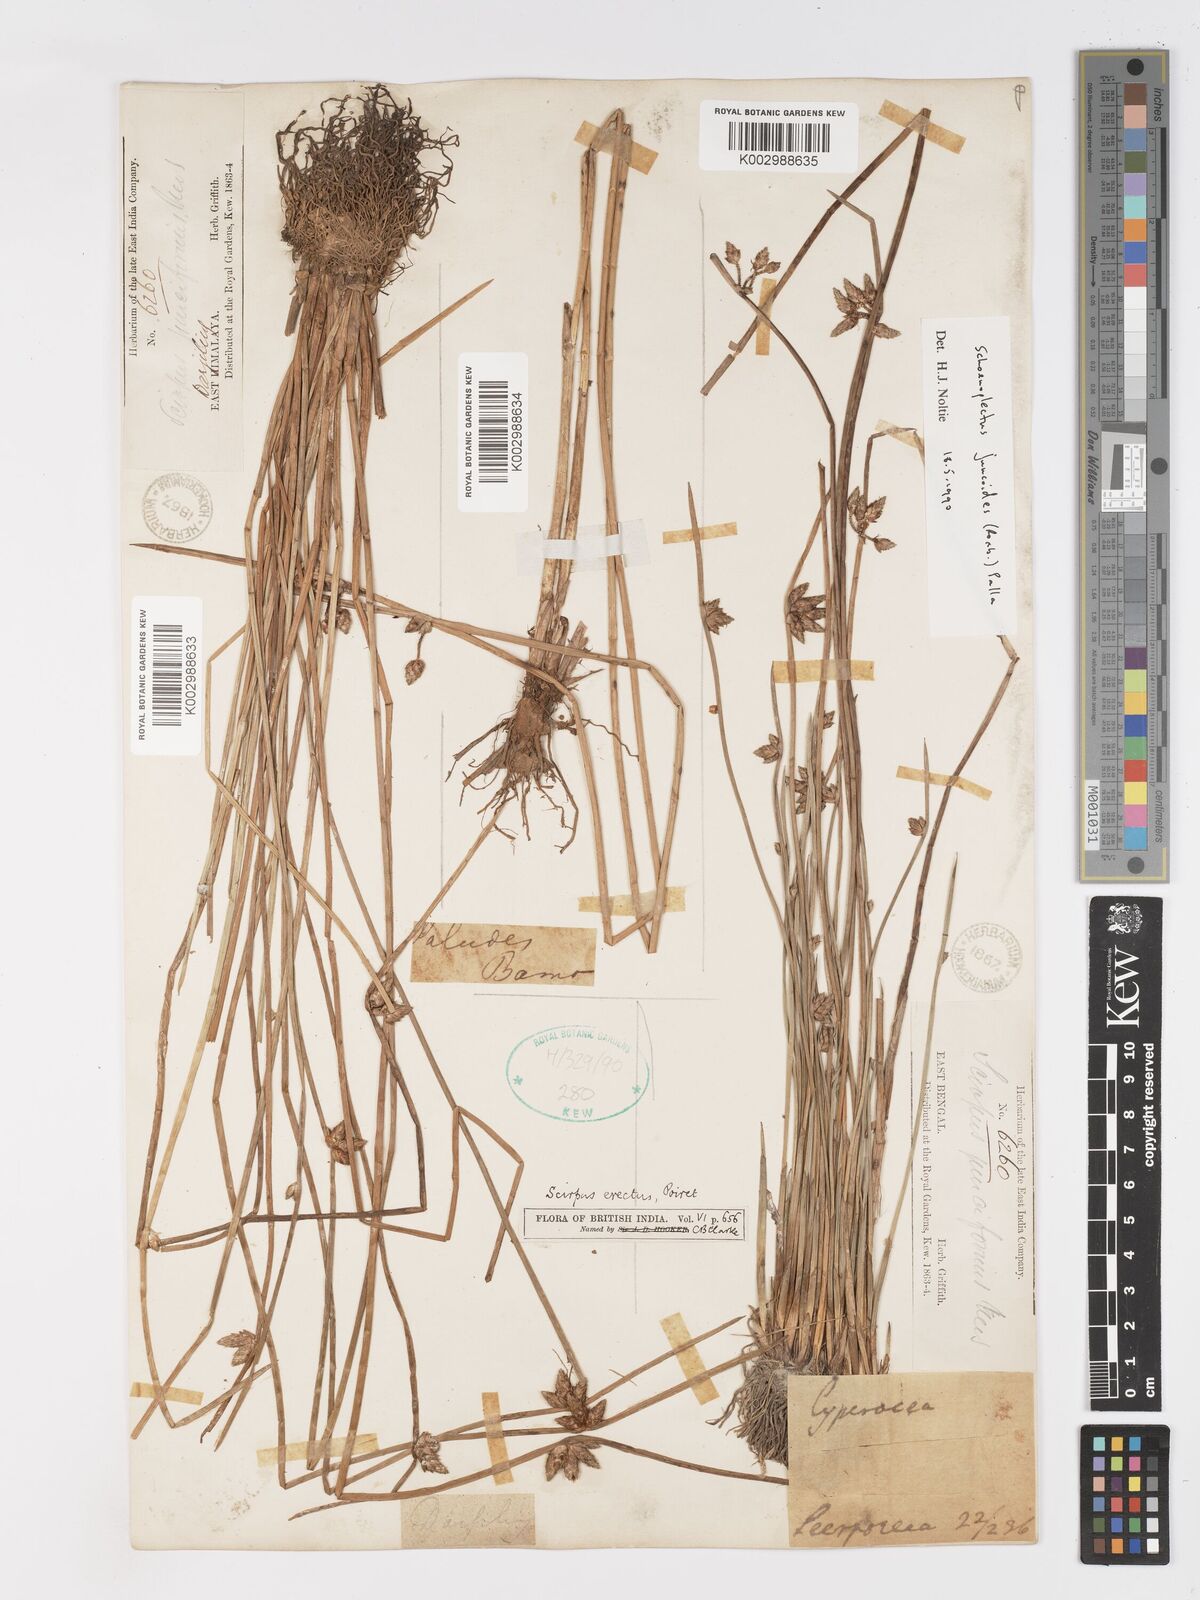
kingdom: Plantae
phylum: Tracheophyta
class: Liliopsida
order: Poales
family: Cyperaceae
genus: Schoenoplectiella
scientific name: Schoenoplectiella juncoides
